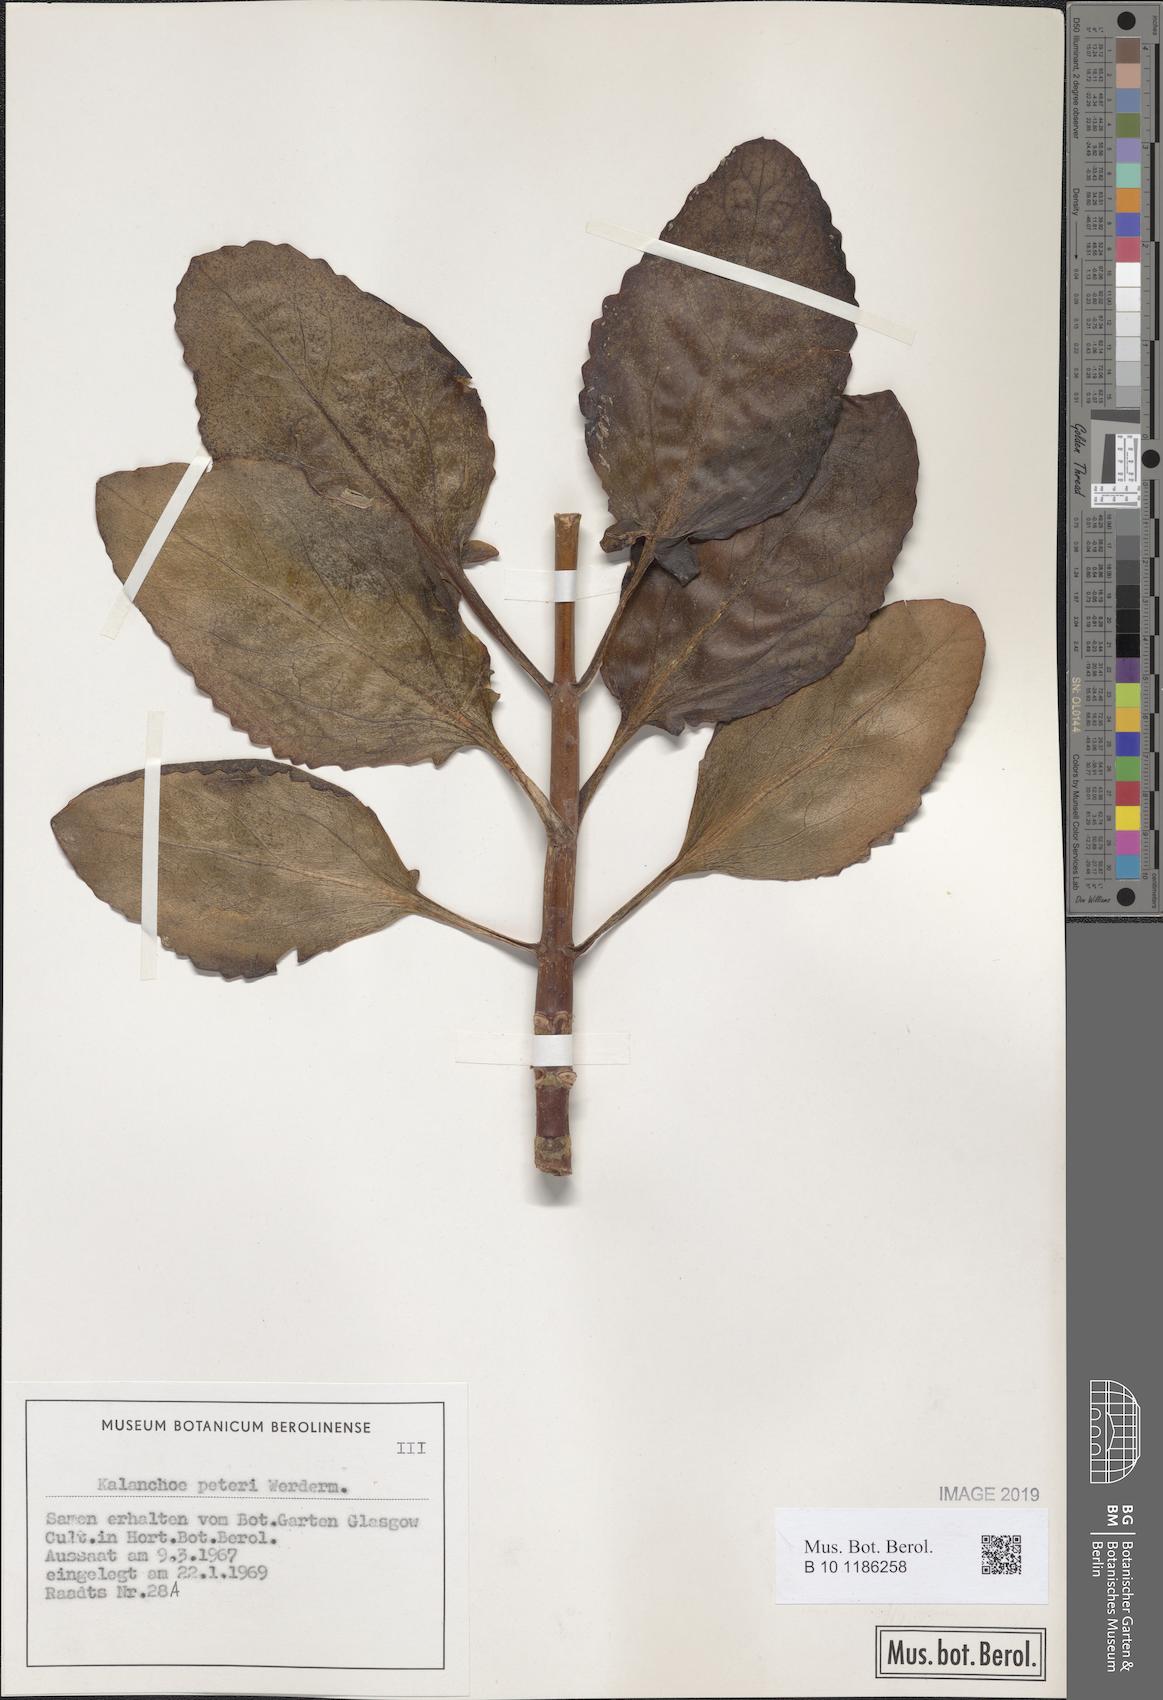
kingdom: Plantae
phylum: Tracheophyta
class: Magnoliopsida
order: Saxifragales
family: Crassulaceae
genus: Kalanchoe
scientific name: Kalanchoe peteri
